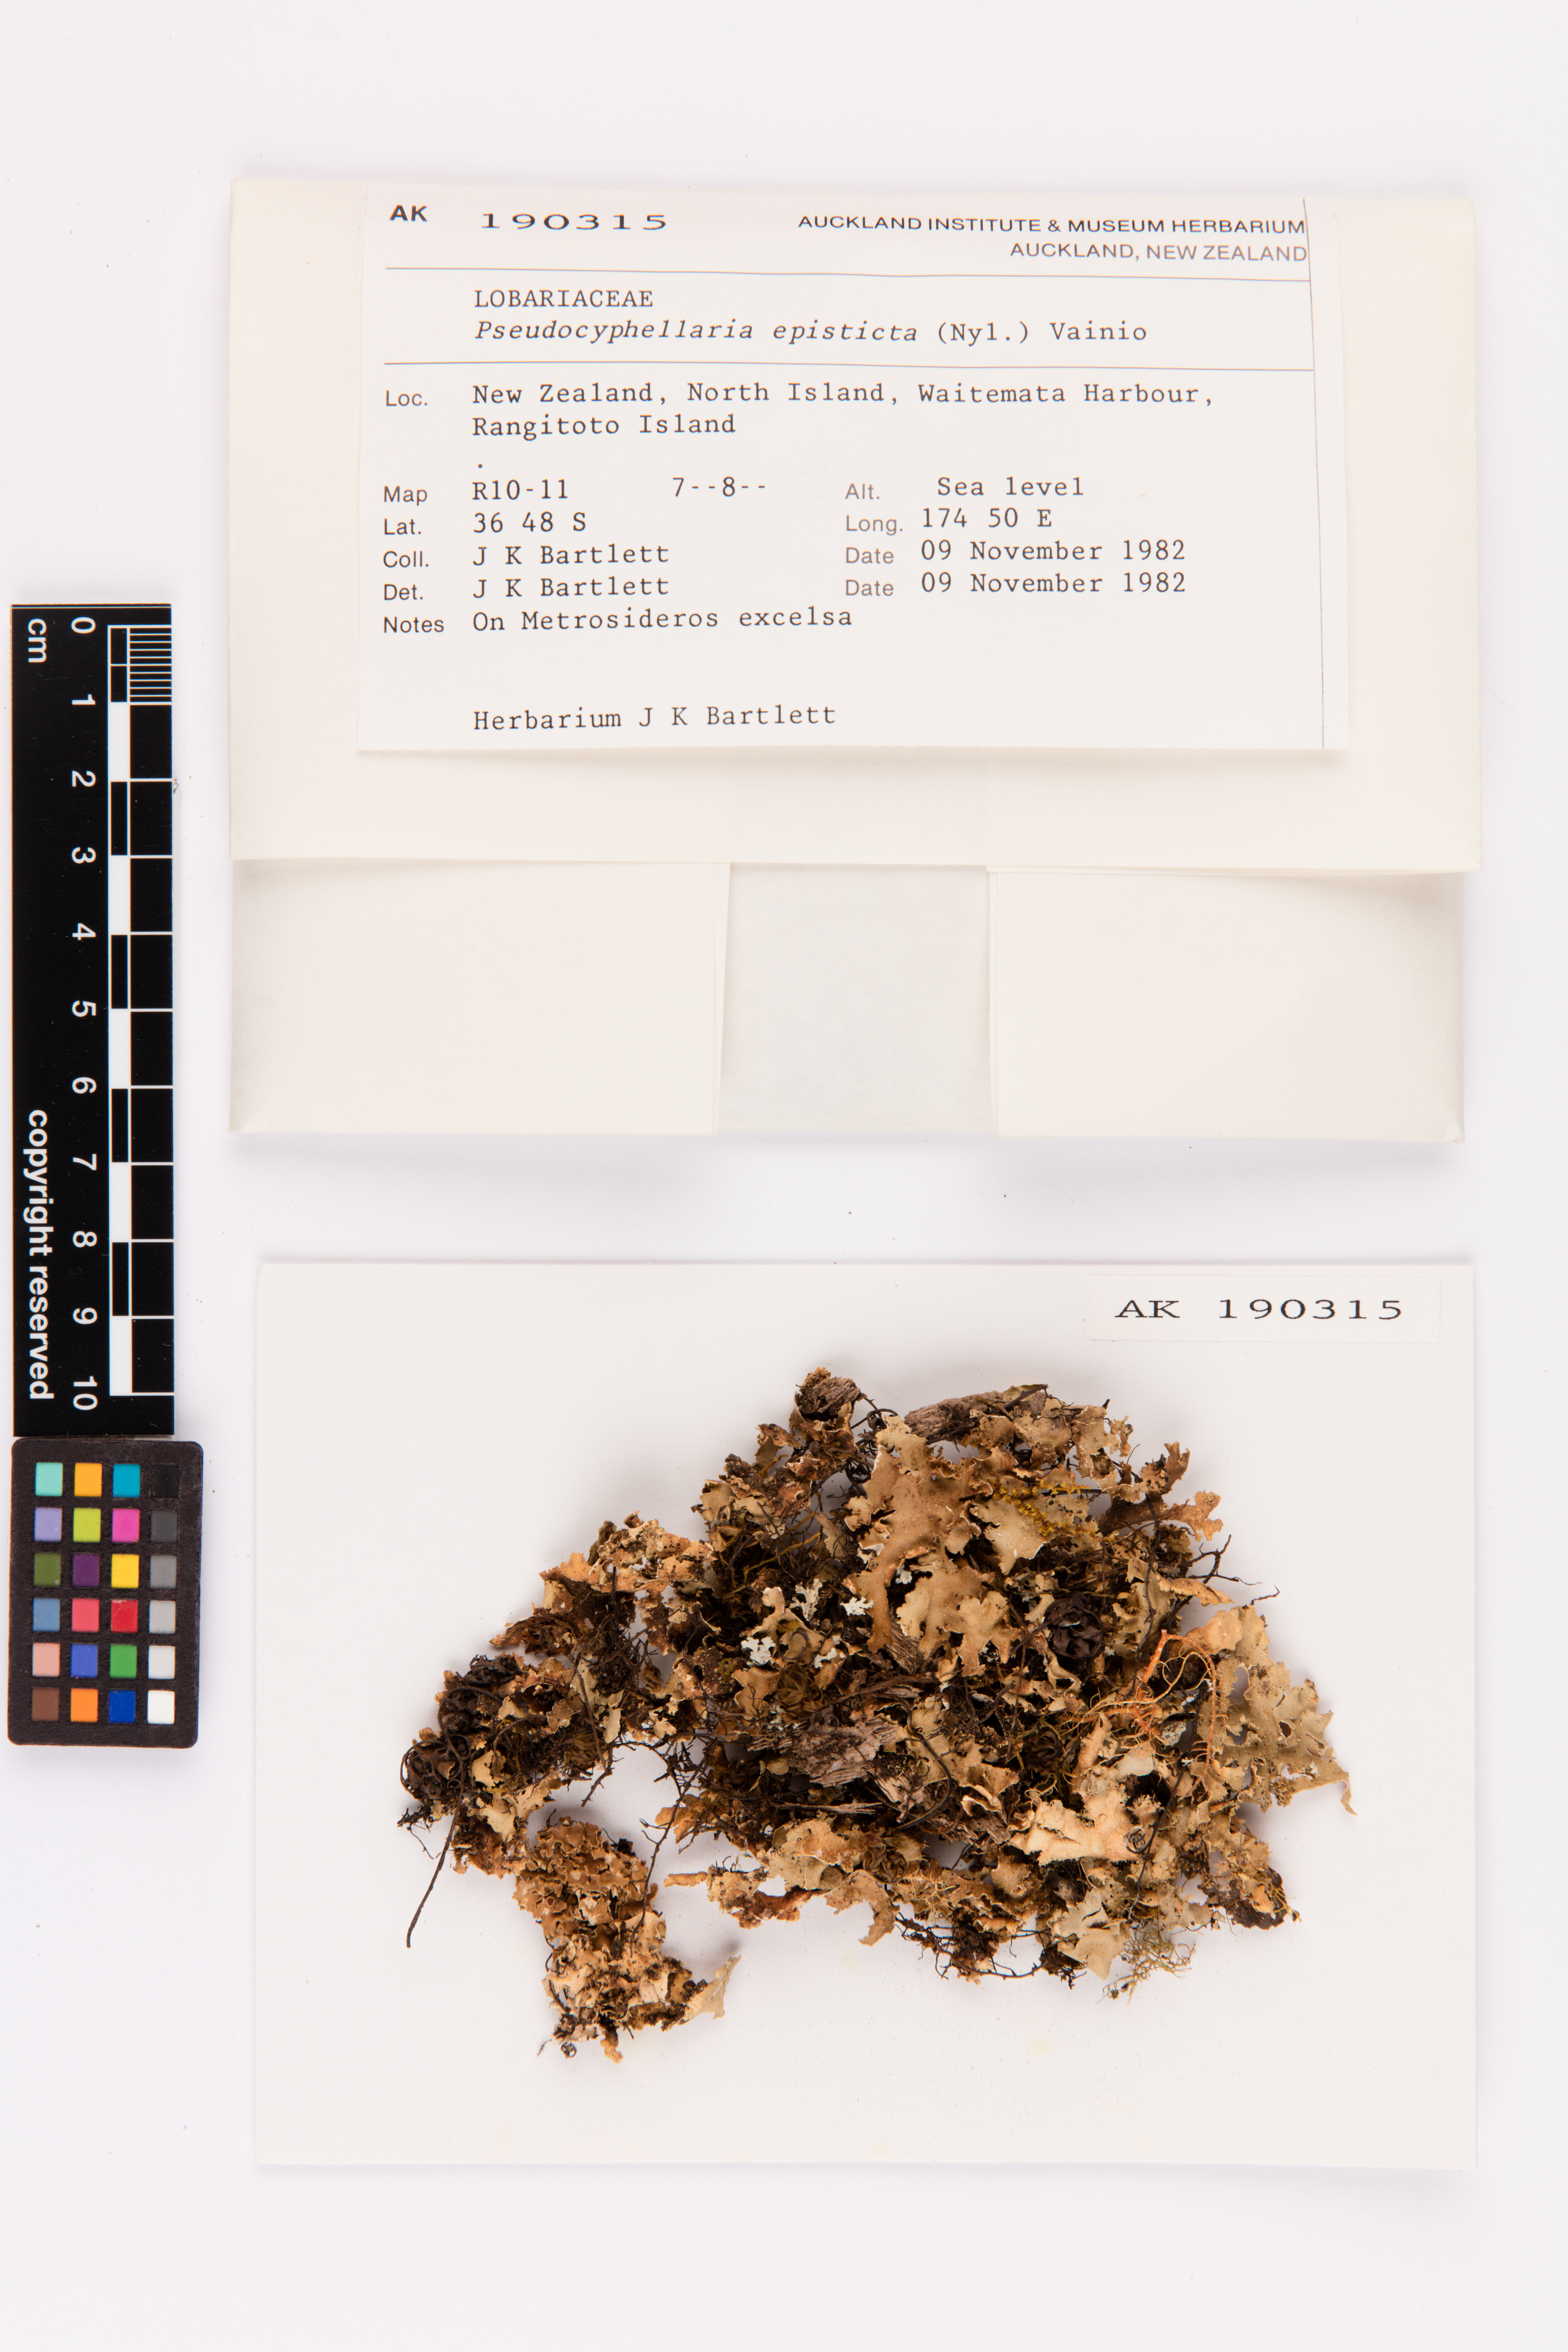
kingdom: Fungi
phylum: Ascomycota
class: Lecanoromycetes
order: Peltigerales
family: Lobariaceae
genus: Pseudocyphellaria
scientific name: Pseudocyphellaria episticta
